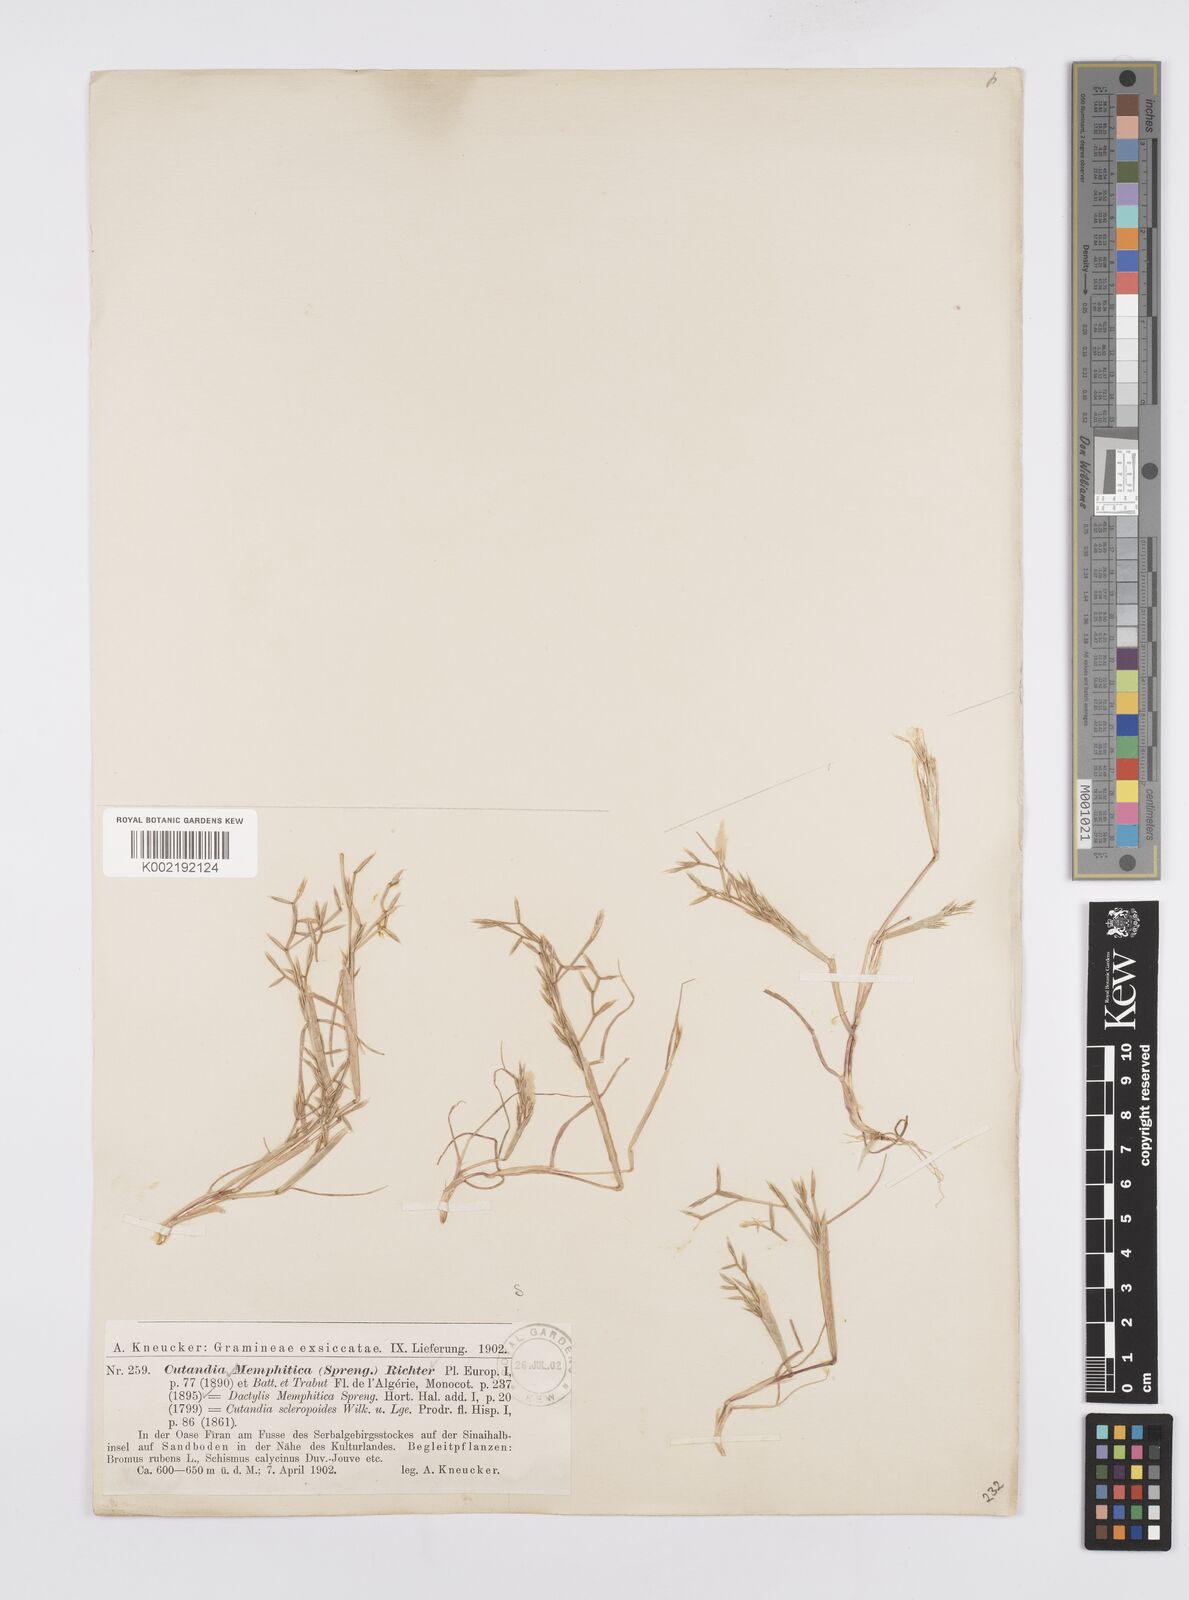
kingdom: Plantae
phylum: Tracheophyta
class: Liliopsida
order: Poales
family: Poaceae
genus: Cutandia
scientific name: Cutandia memphitica
